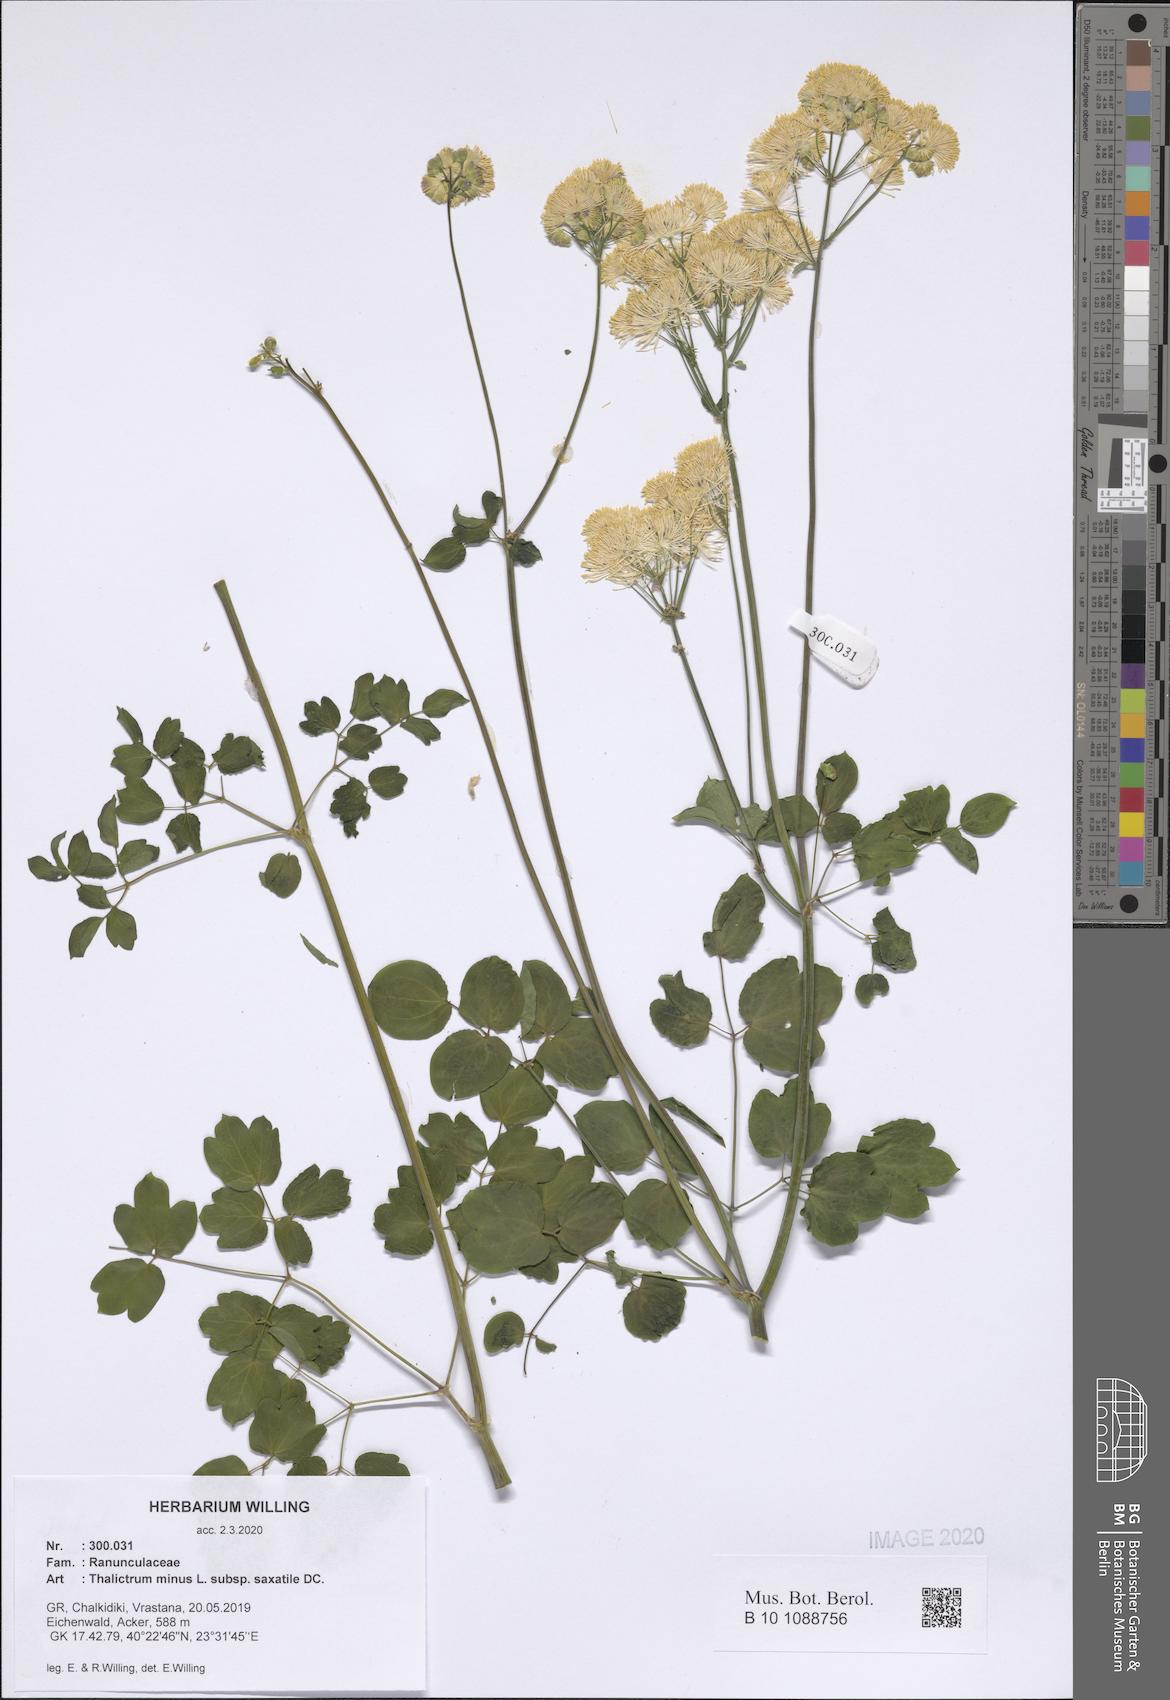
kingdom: Plantae
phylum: Tracheophyta
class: Magnoliopsida
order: Ranunculales
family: Ranunculaceae
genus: Thalictrum
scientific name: Thalictrum minus
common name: Lesser meadow-rue
